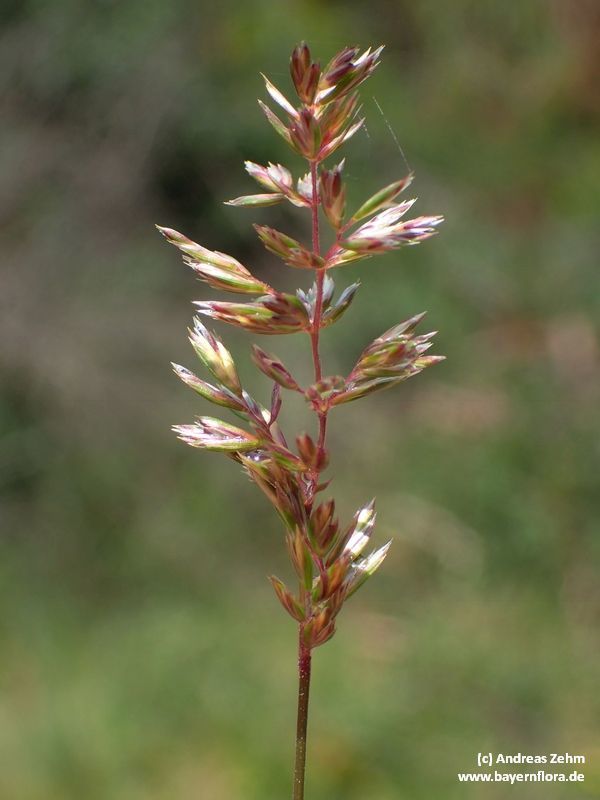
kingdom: Plantae
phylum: Tracheophyta
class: Liliopsida
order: Poales
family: Poaceae
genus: Koeleria
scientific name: Koeleria pyramidata
